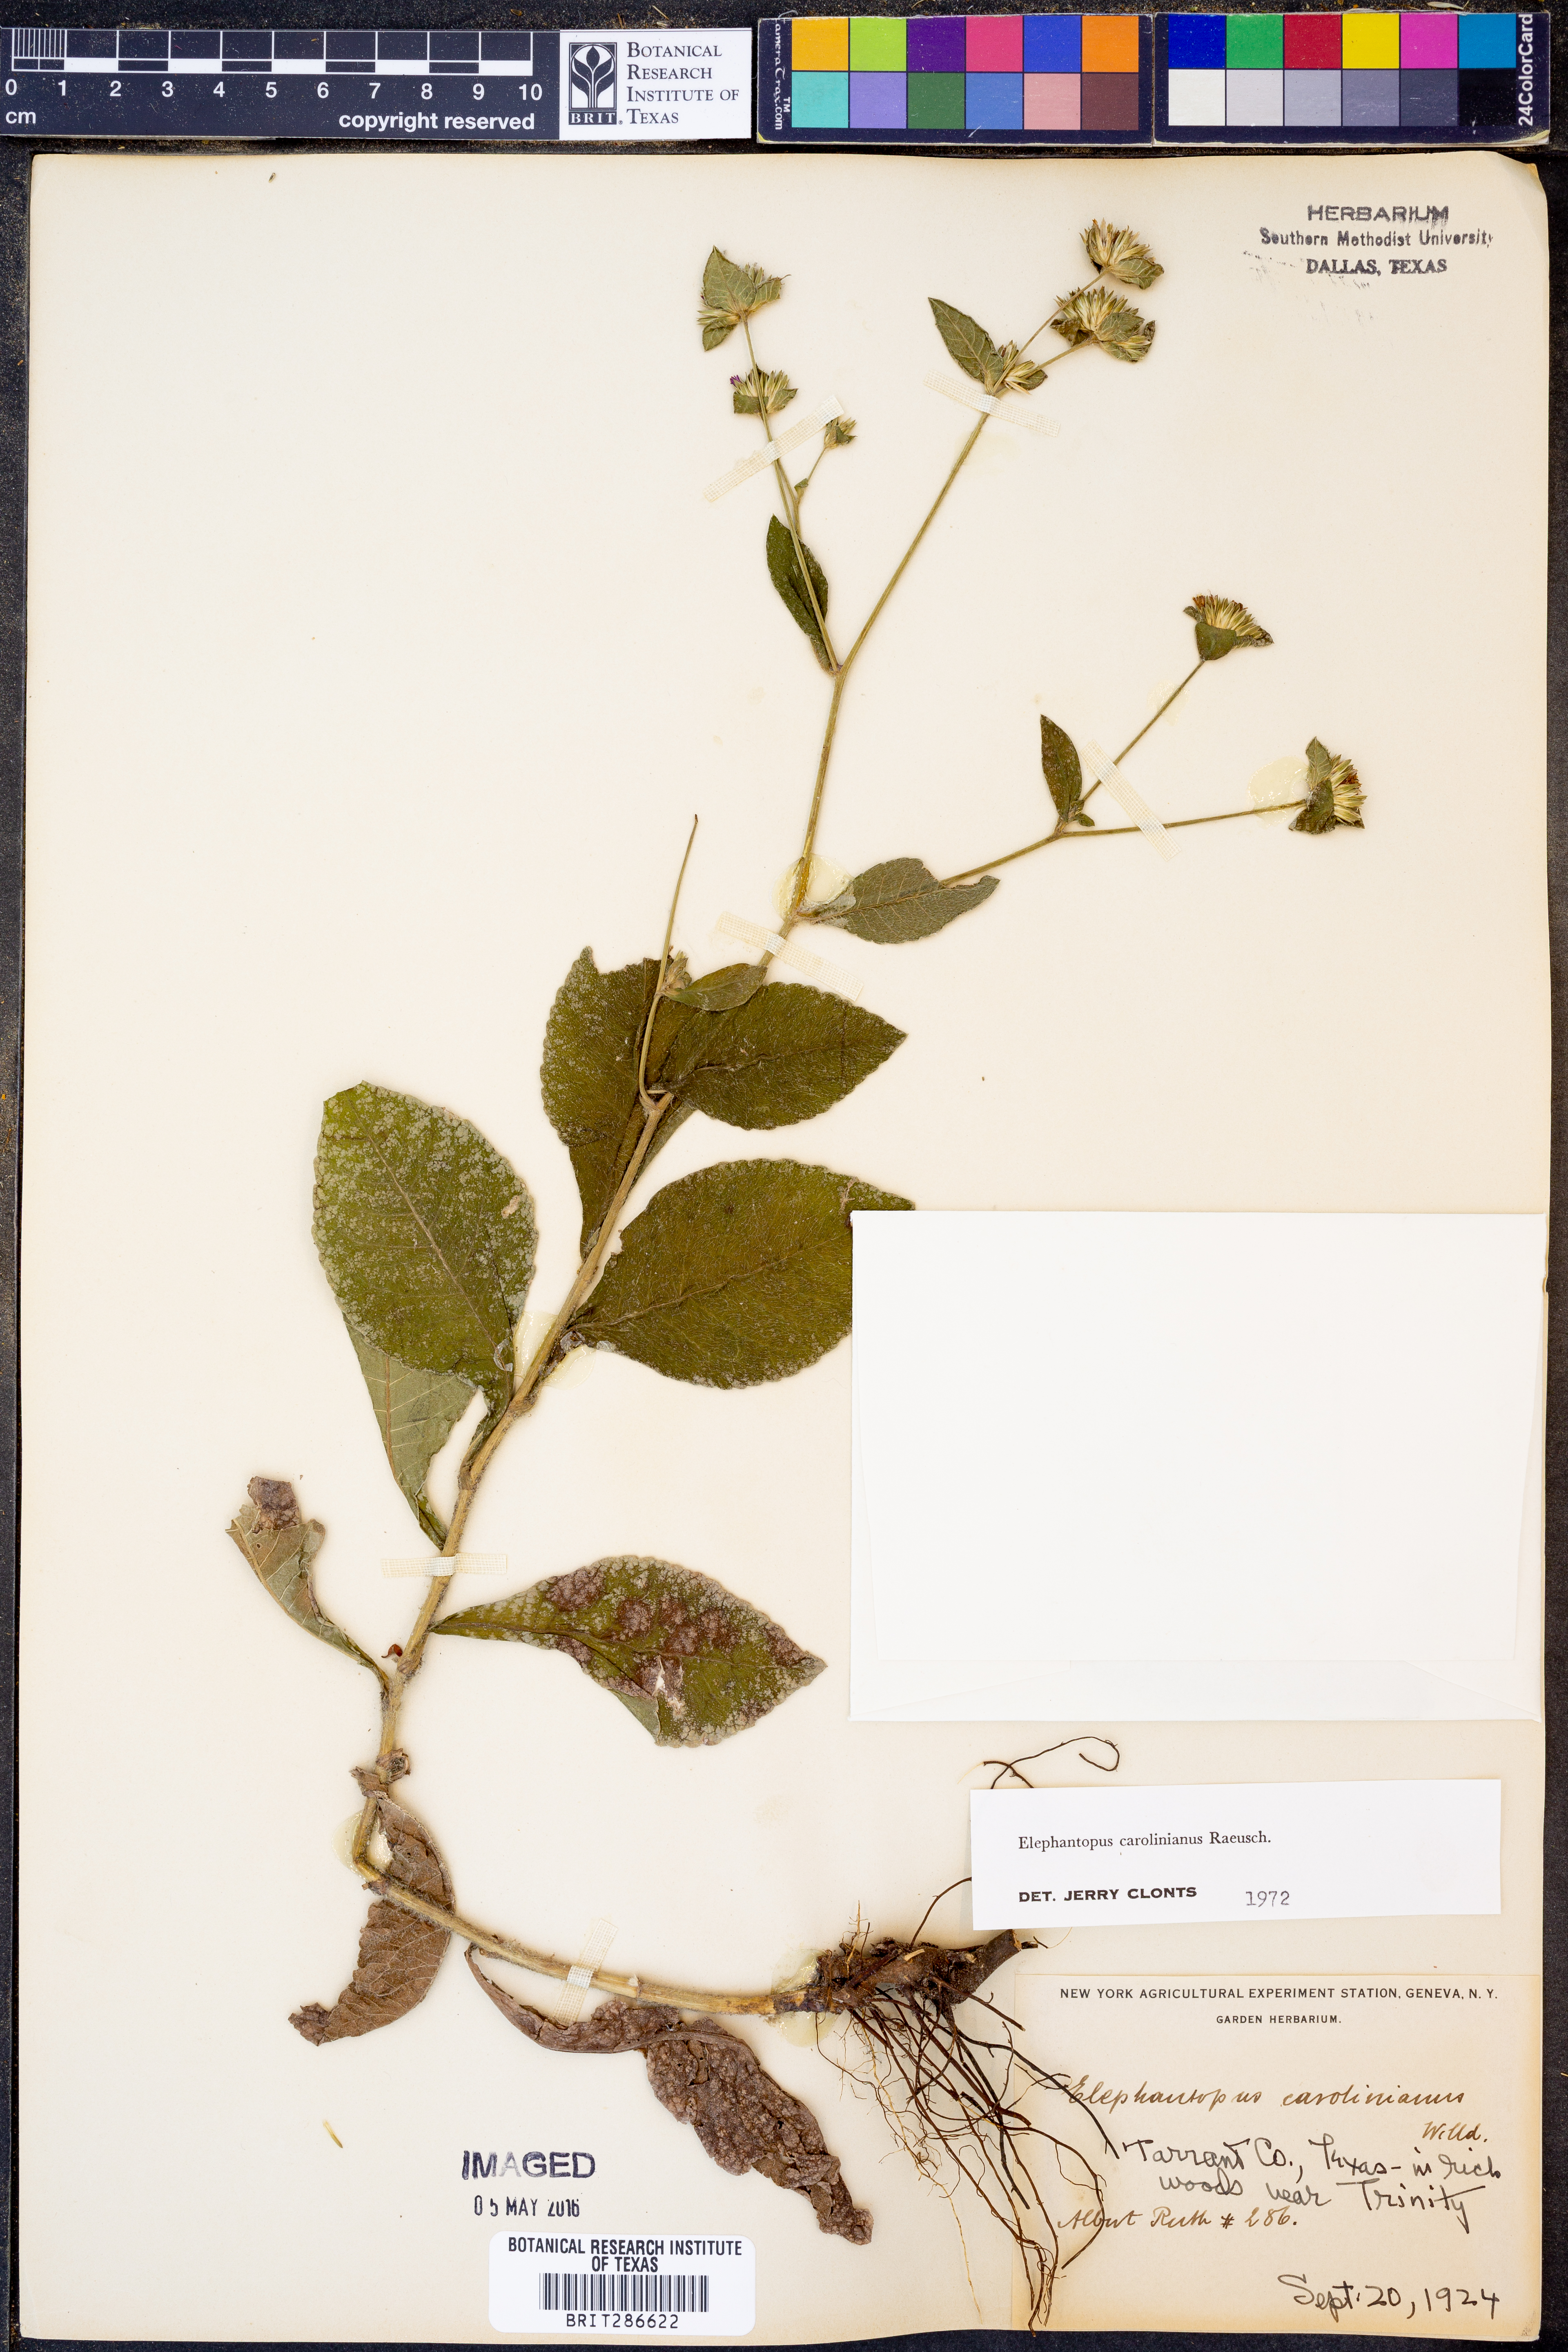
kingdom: Plantae
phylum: Tracheophyta
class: Magnoliopsida
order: Asterales
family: Asteraceae
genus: Elephantopus
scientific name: Elephantopus carolinianus
